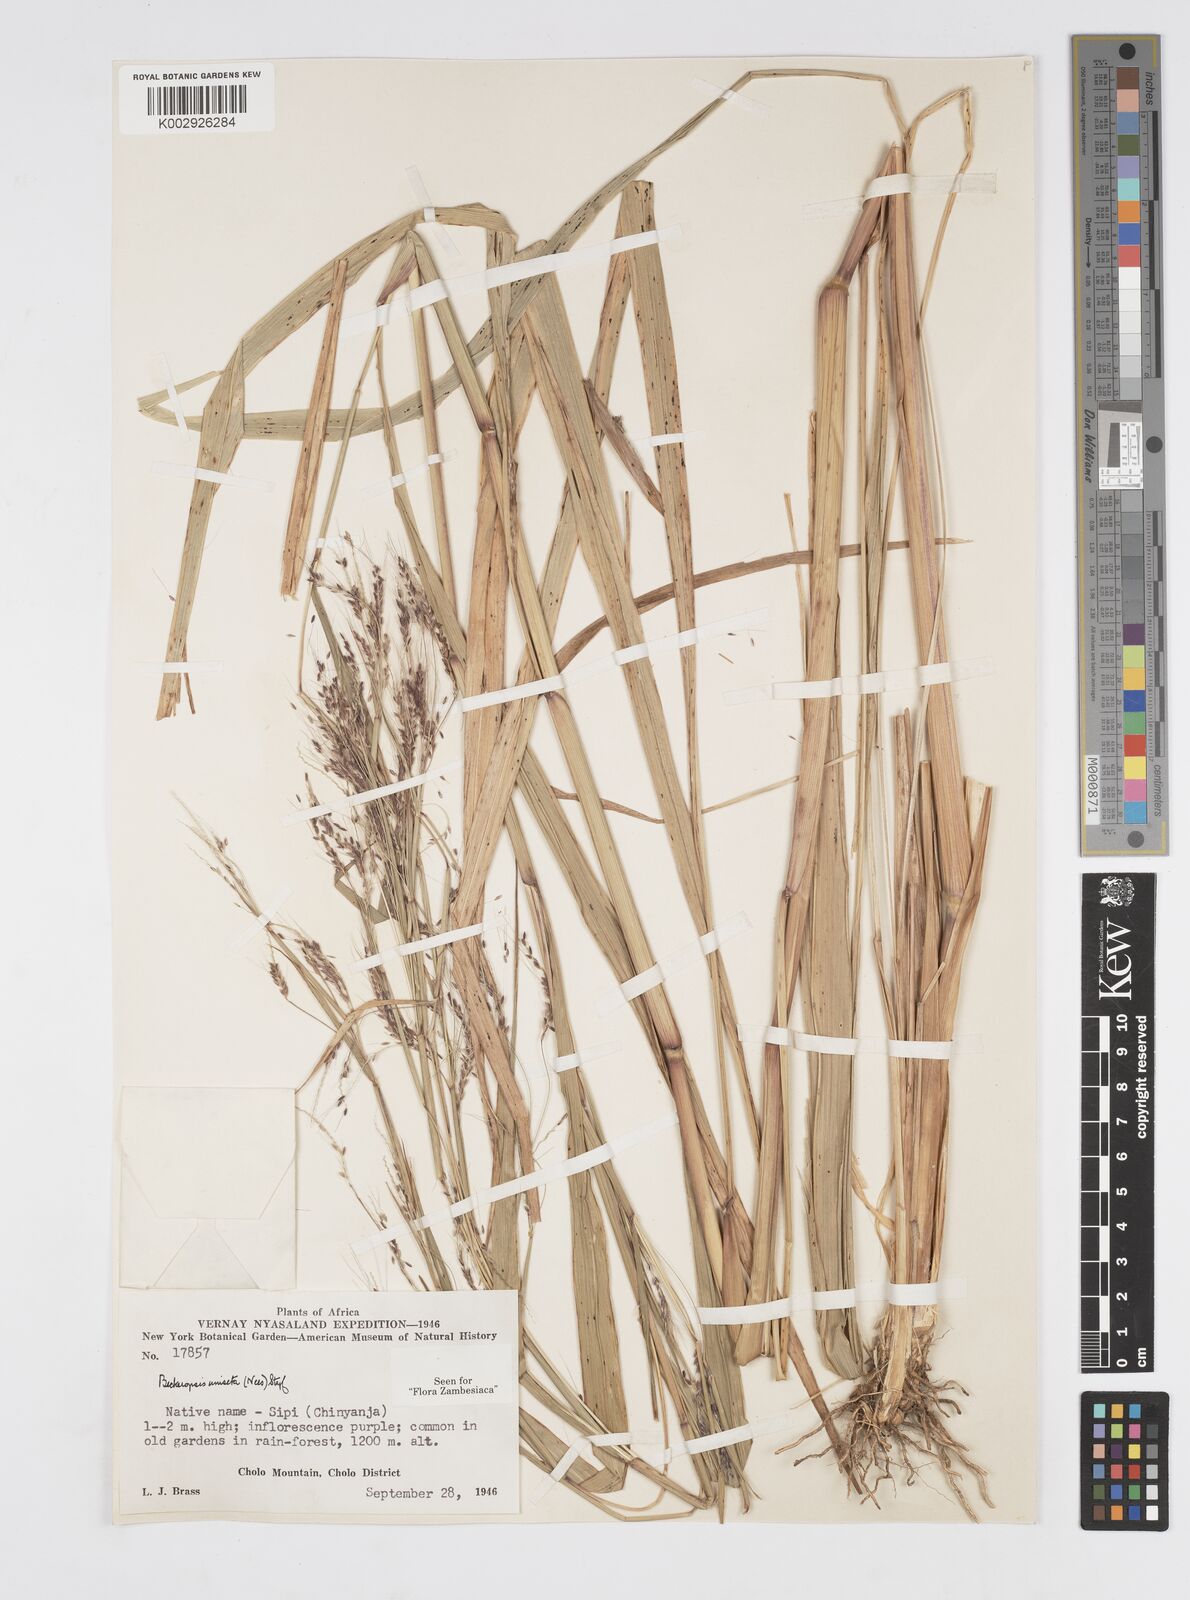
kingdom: Plantae
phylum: Tracheophyta
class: Liliopsida
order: Poales
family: Poaceae
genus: Cenchrus
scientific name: Cenchrus unisetus
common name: Natal grass
